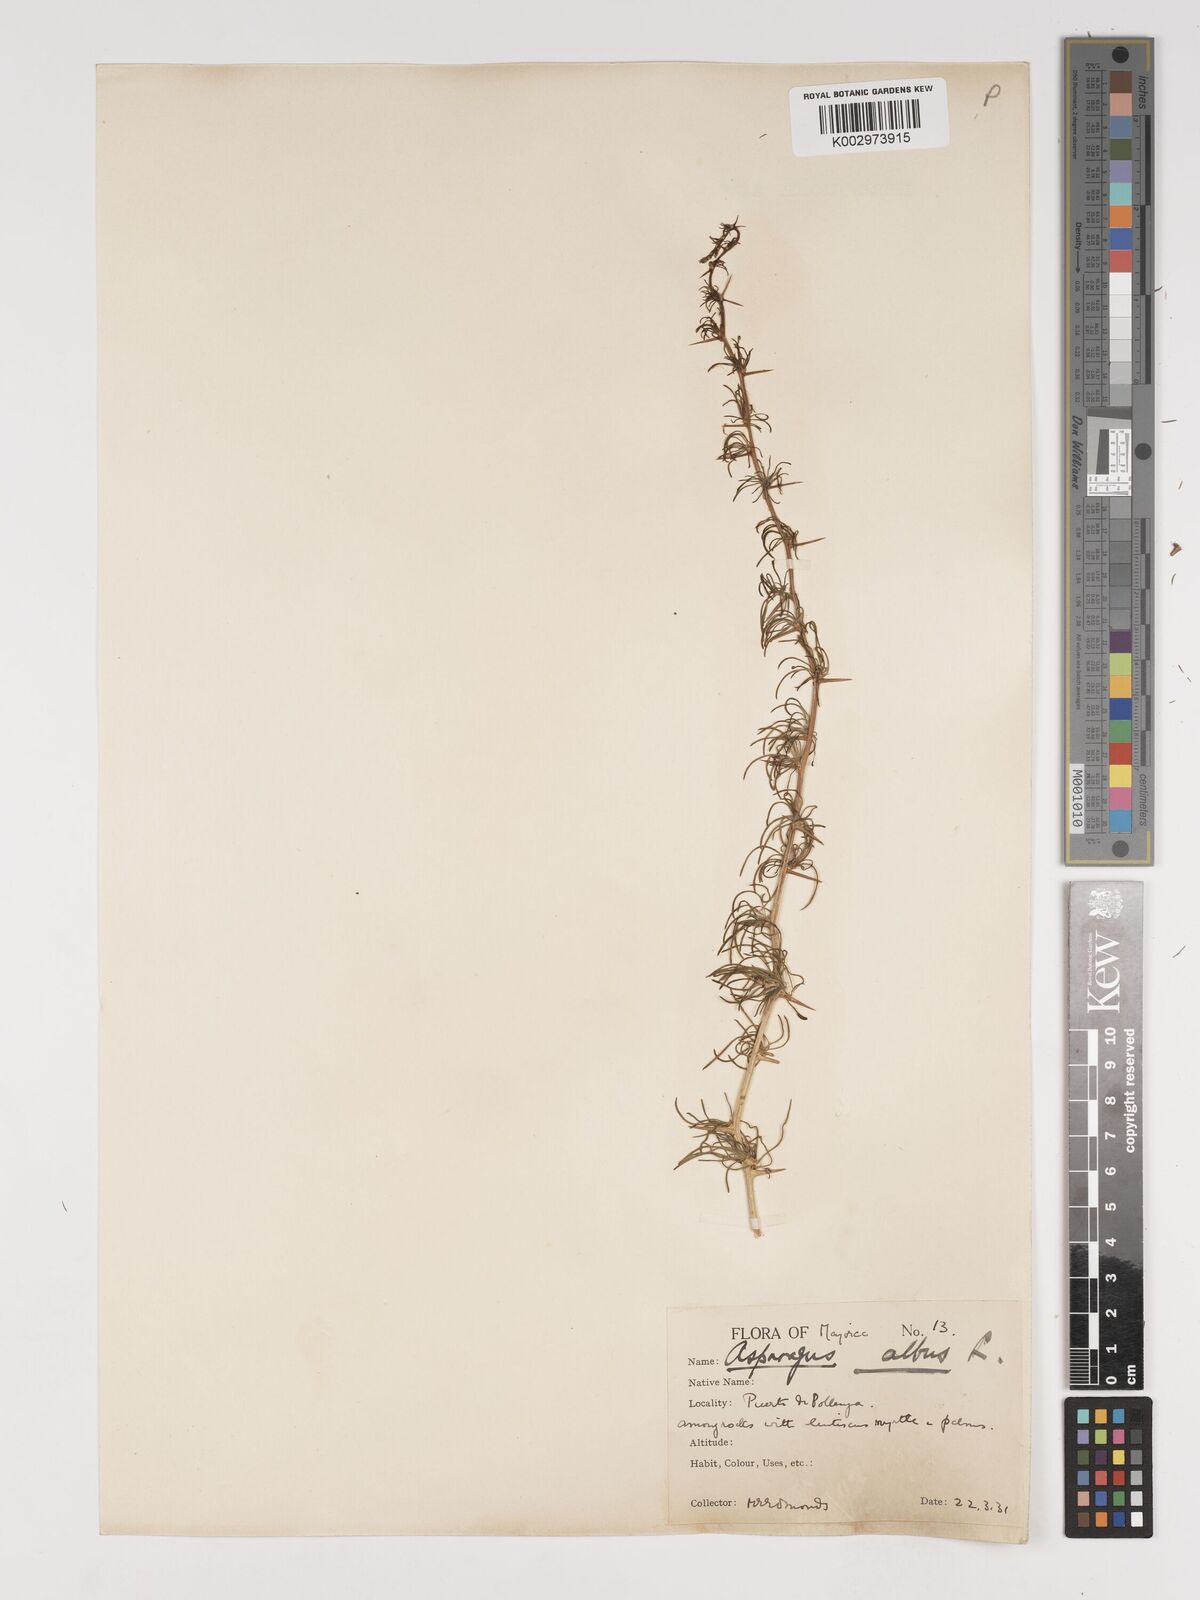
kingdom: Plantae
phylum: Tracheophyta
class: Liliopsida
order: Asparagales
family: Asparagaceae
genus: Asparagus
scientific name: Asparagus albus
